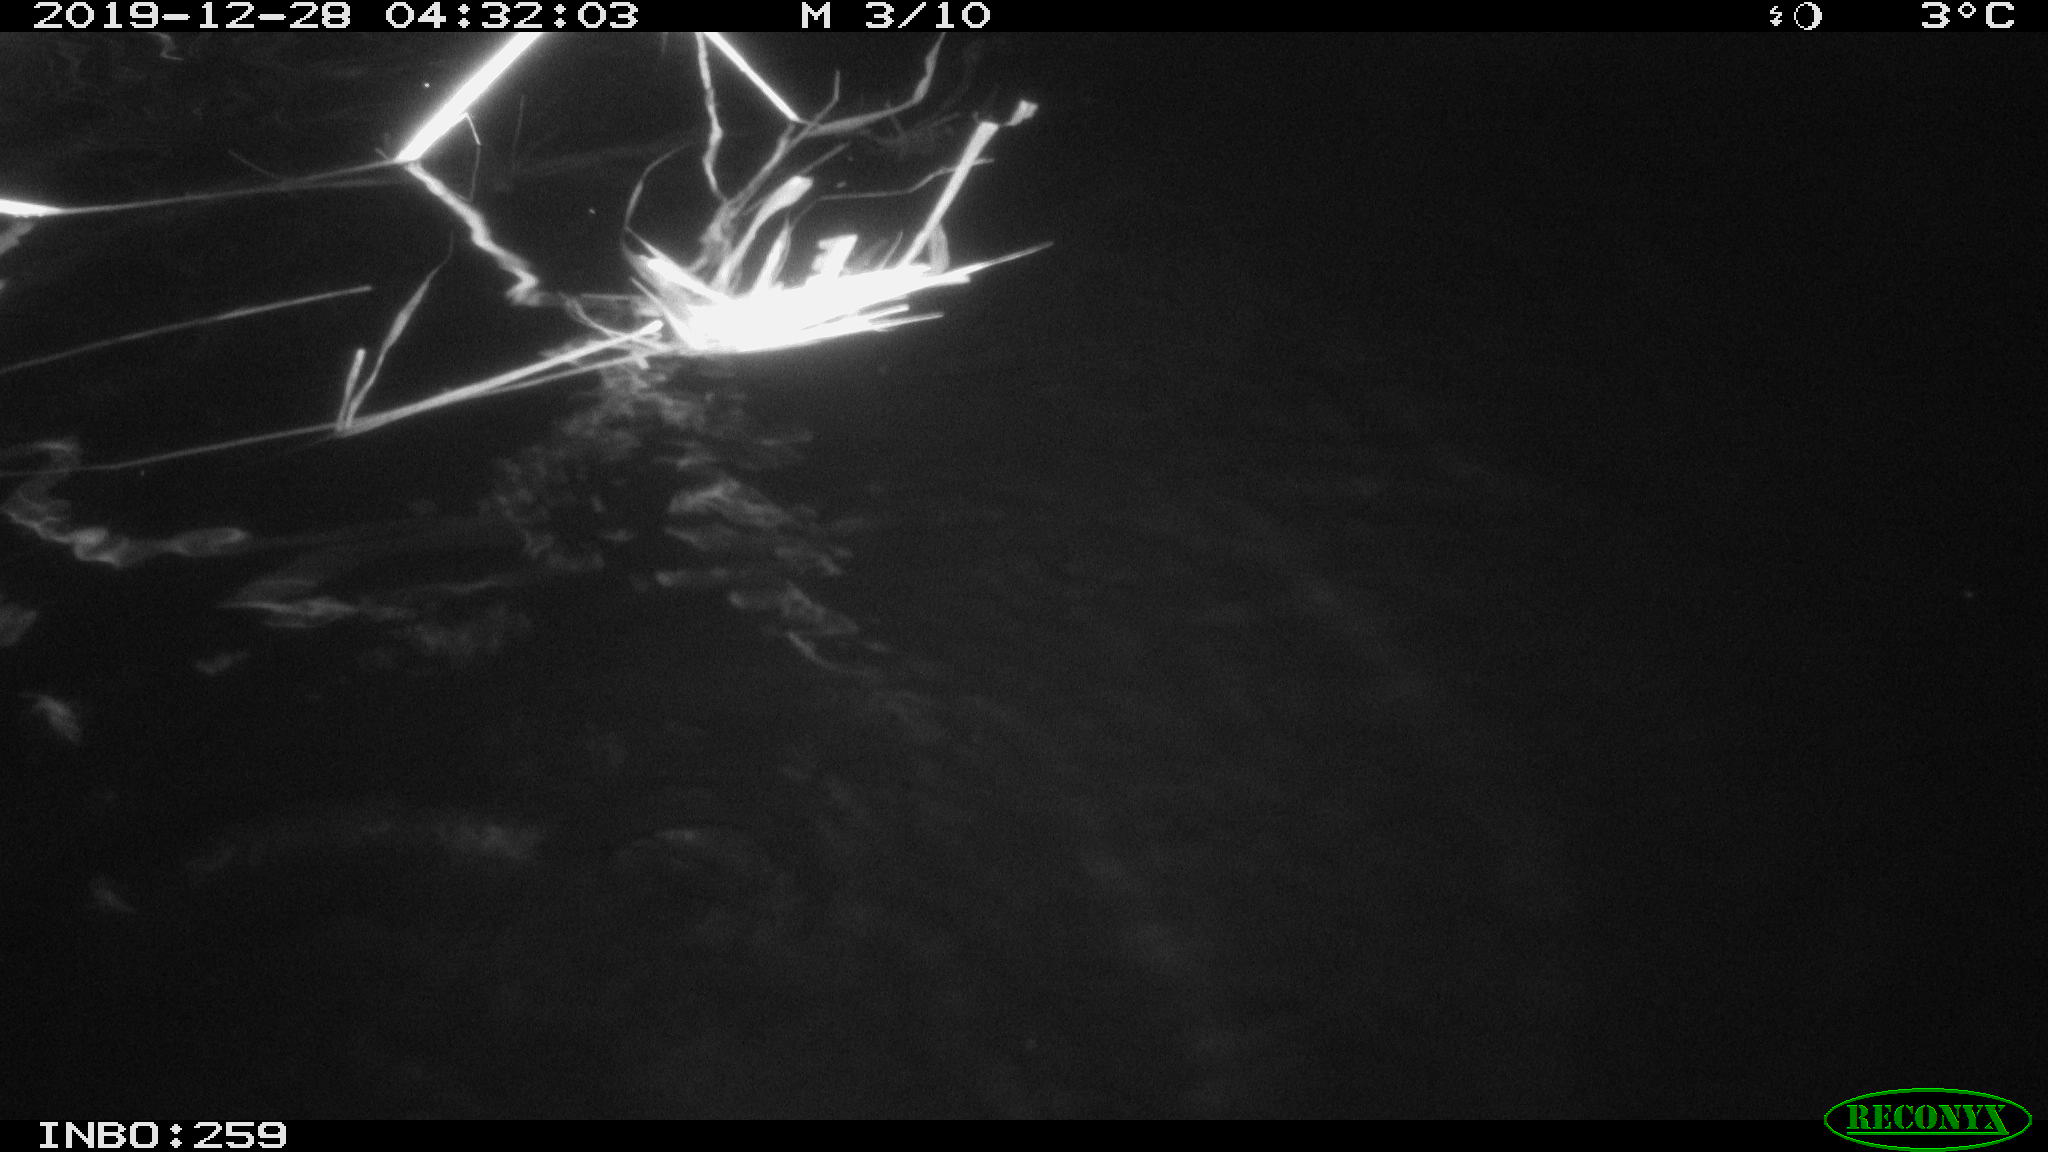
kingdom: Animalia
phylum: Chordata
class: Mammalia
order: Rodentia
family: Cricetidae
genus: Ondatra
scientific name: Ondatra zibethicus
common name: Muskrat
